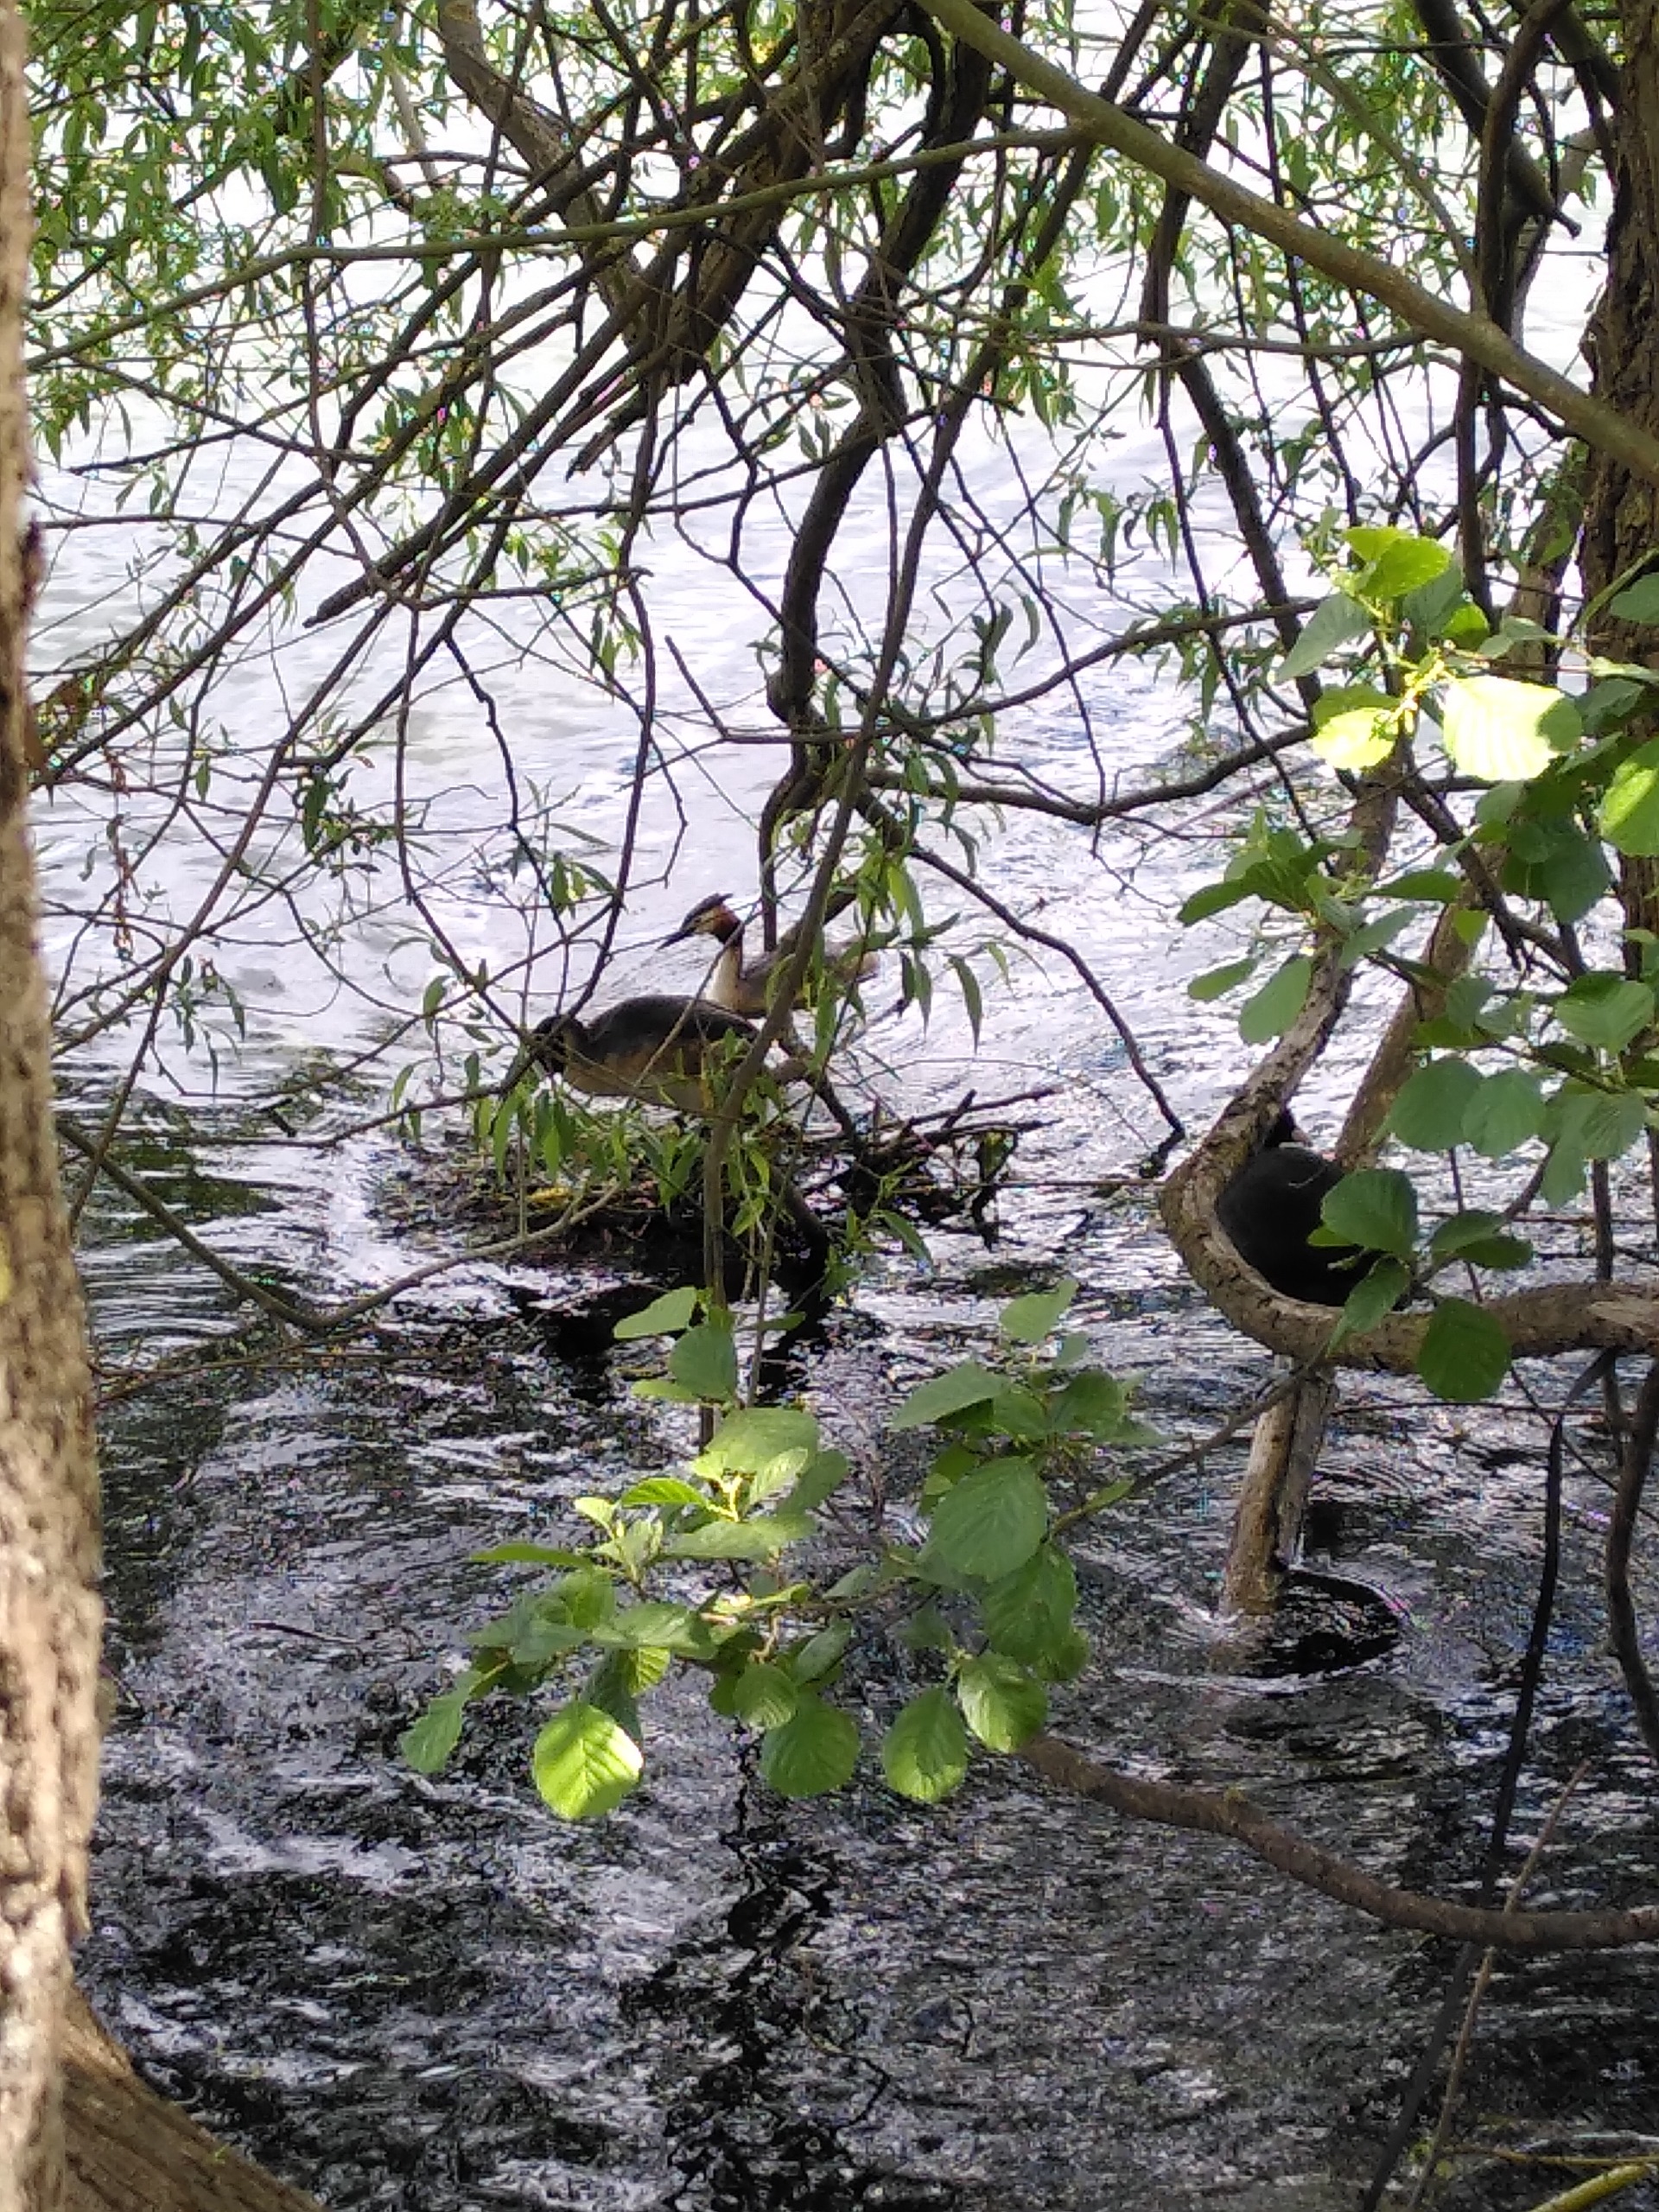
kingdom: Animalia
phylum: Chordata
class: Aves
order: Podicipediformes
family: Podicipedidae
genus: Podiceps
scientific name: Podiceps cristatus
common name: Toppet lappedykker
